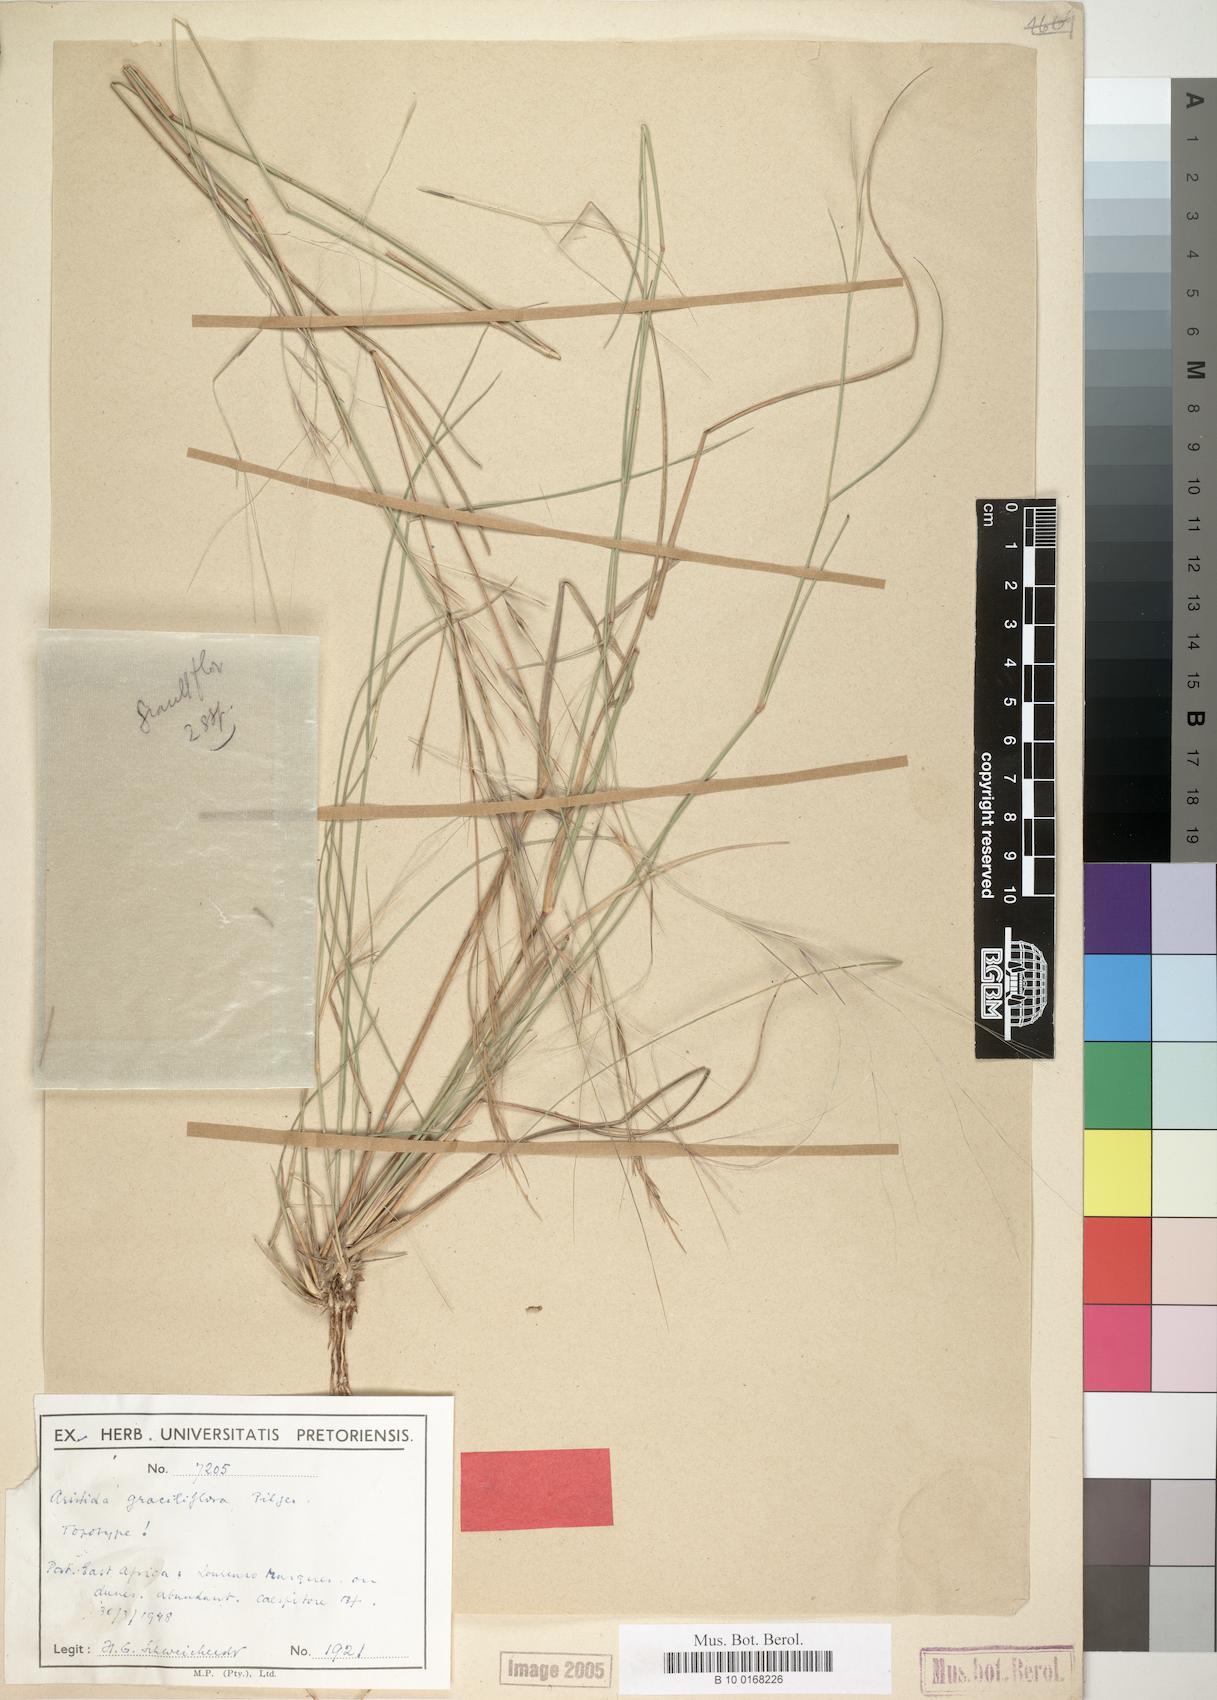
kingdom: Plantae
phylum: Tracheophyta
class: Liliopsida
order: Poales
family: Poaceae
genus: Aristida
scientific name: Aristida stipitata
